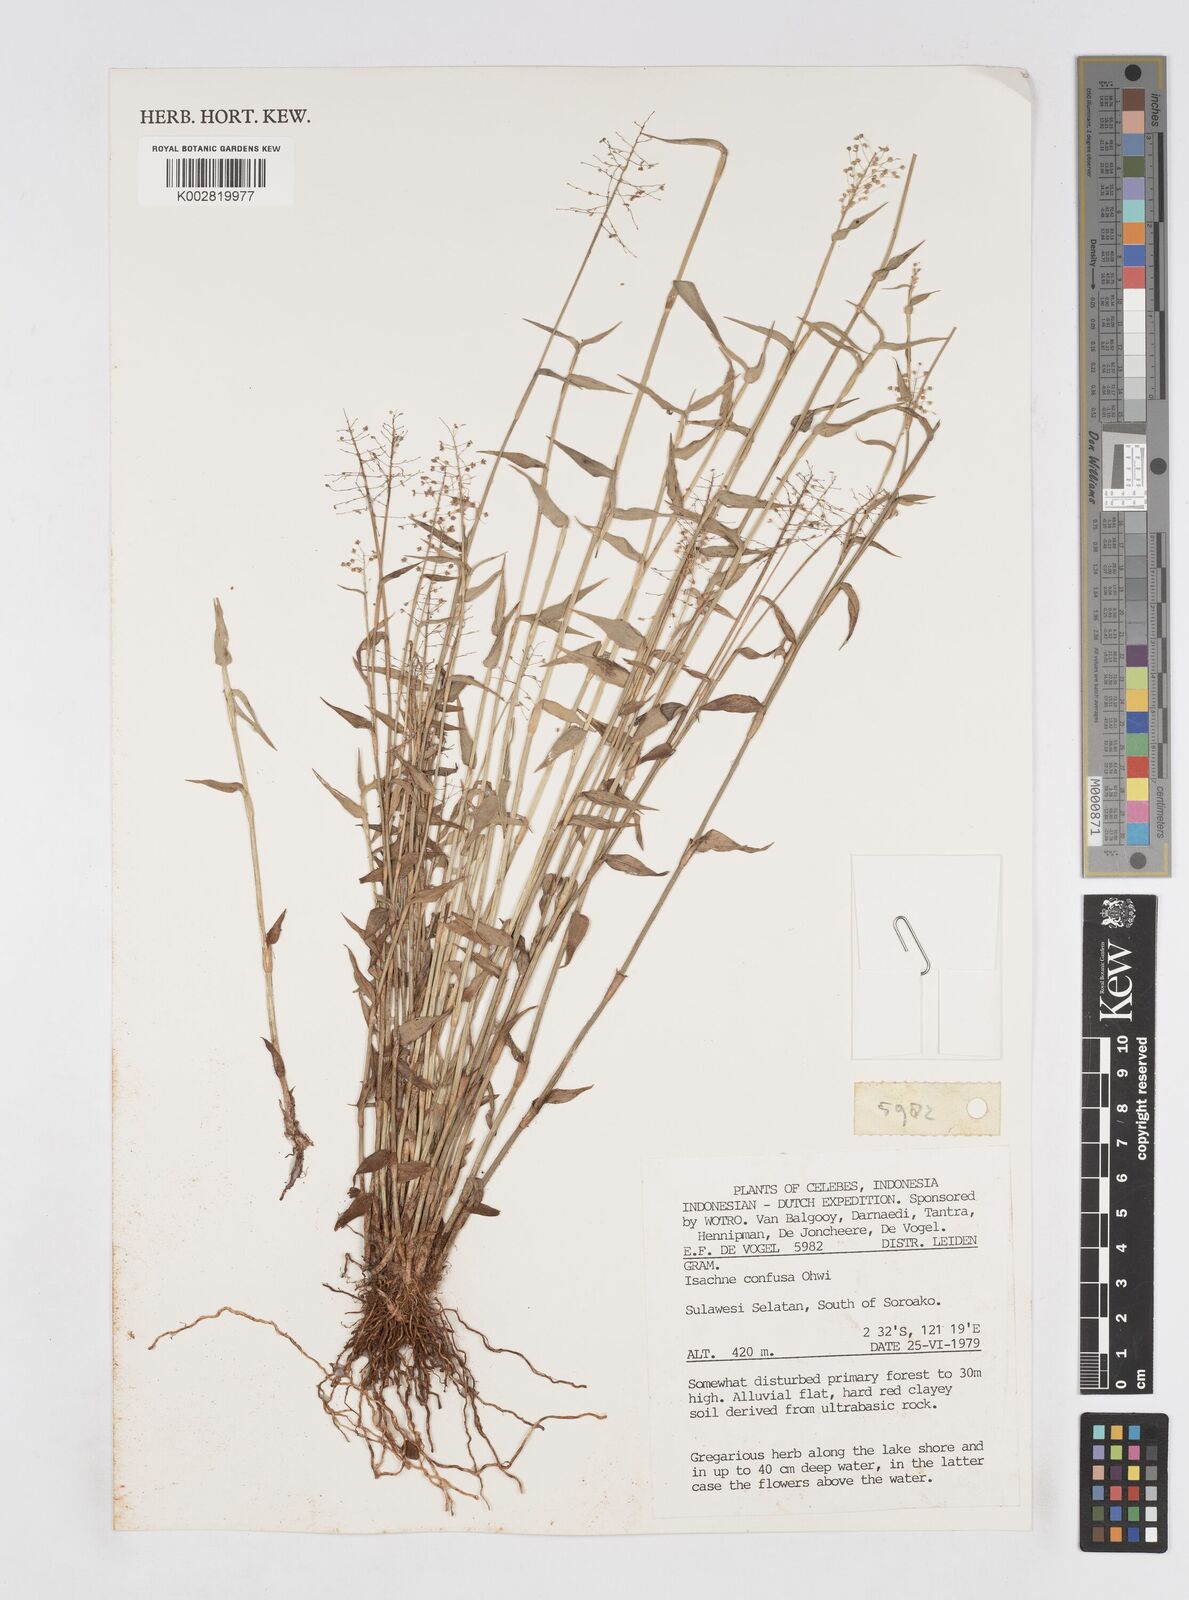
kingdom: Plantae
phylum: Tracheophyta
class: Liliopsida
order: Poales
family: Poaceae
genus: Isachne
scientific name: Isachne confusa
